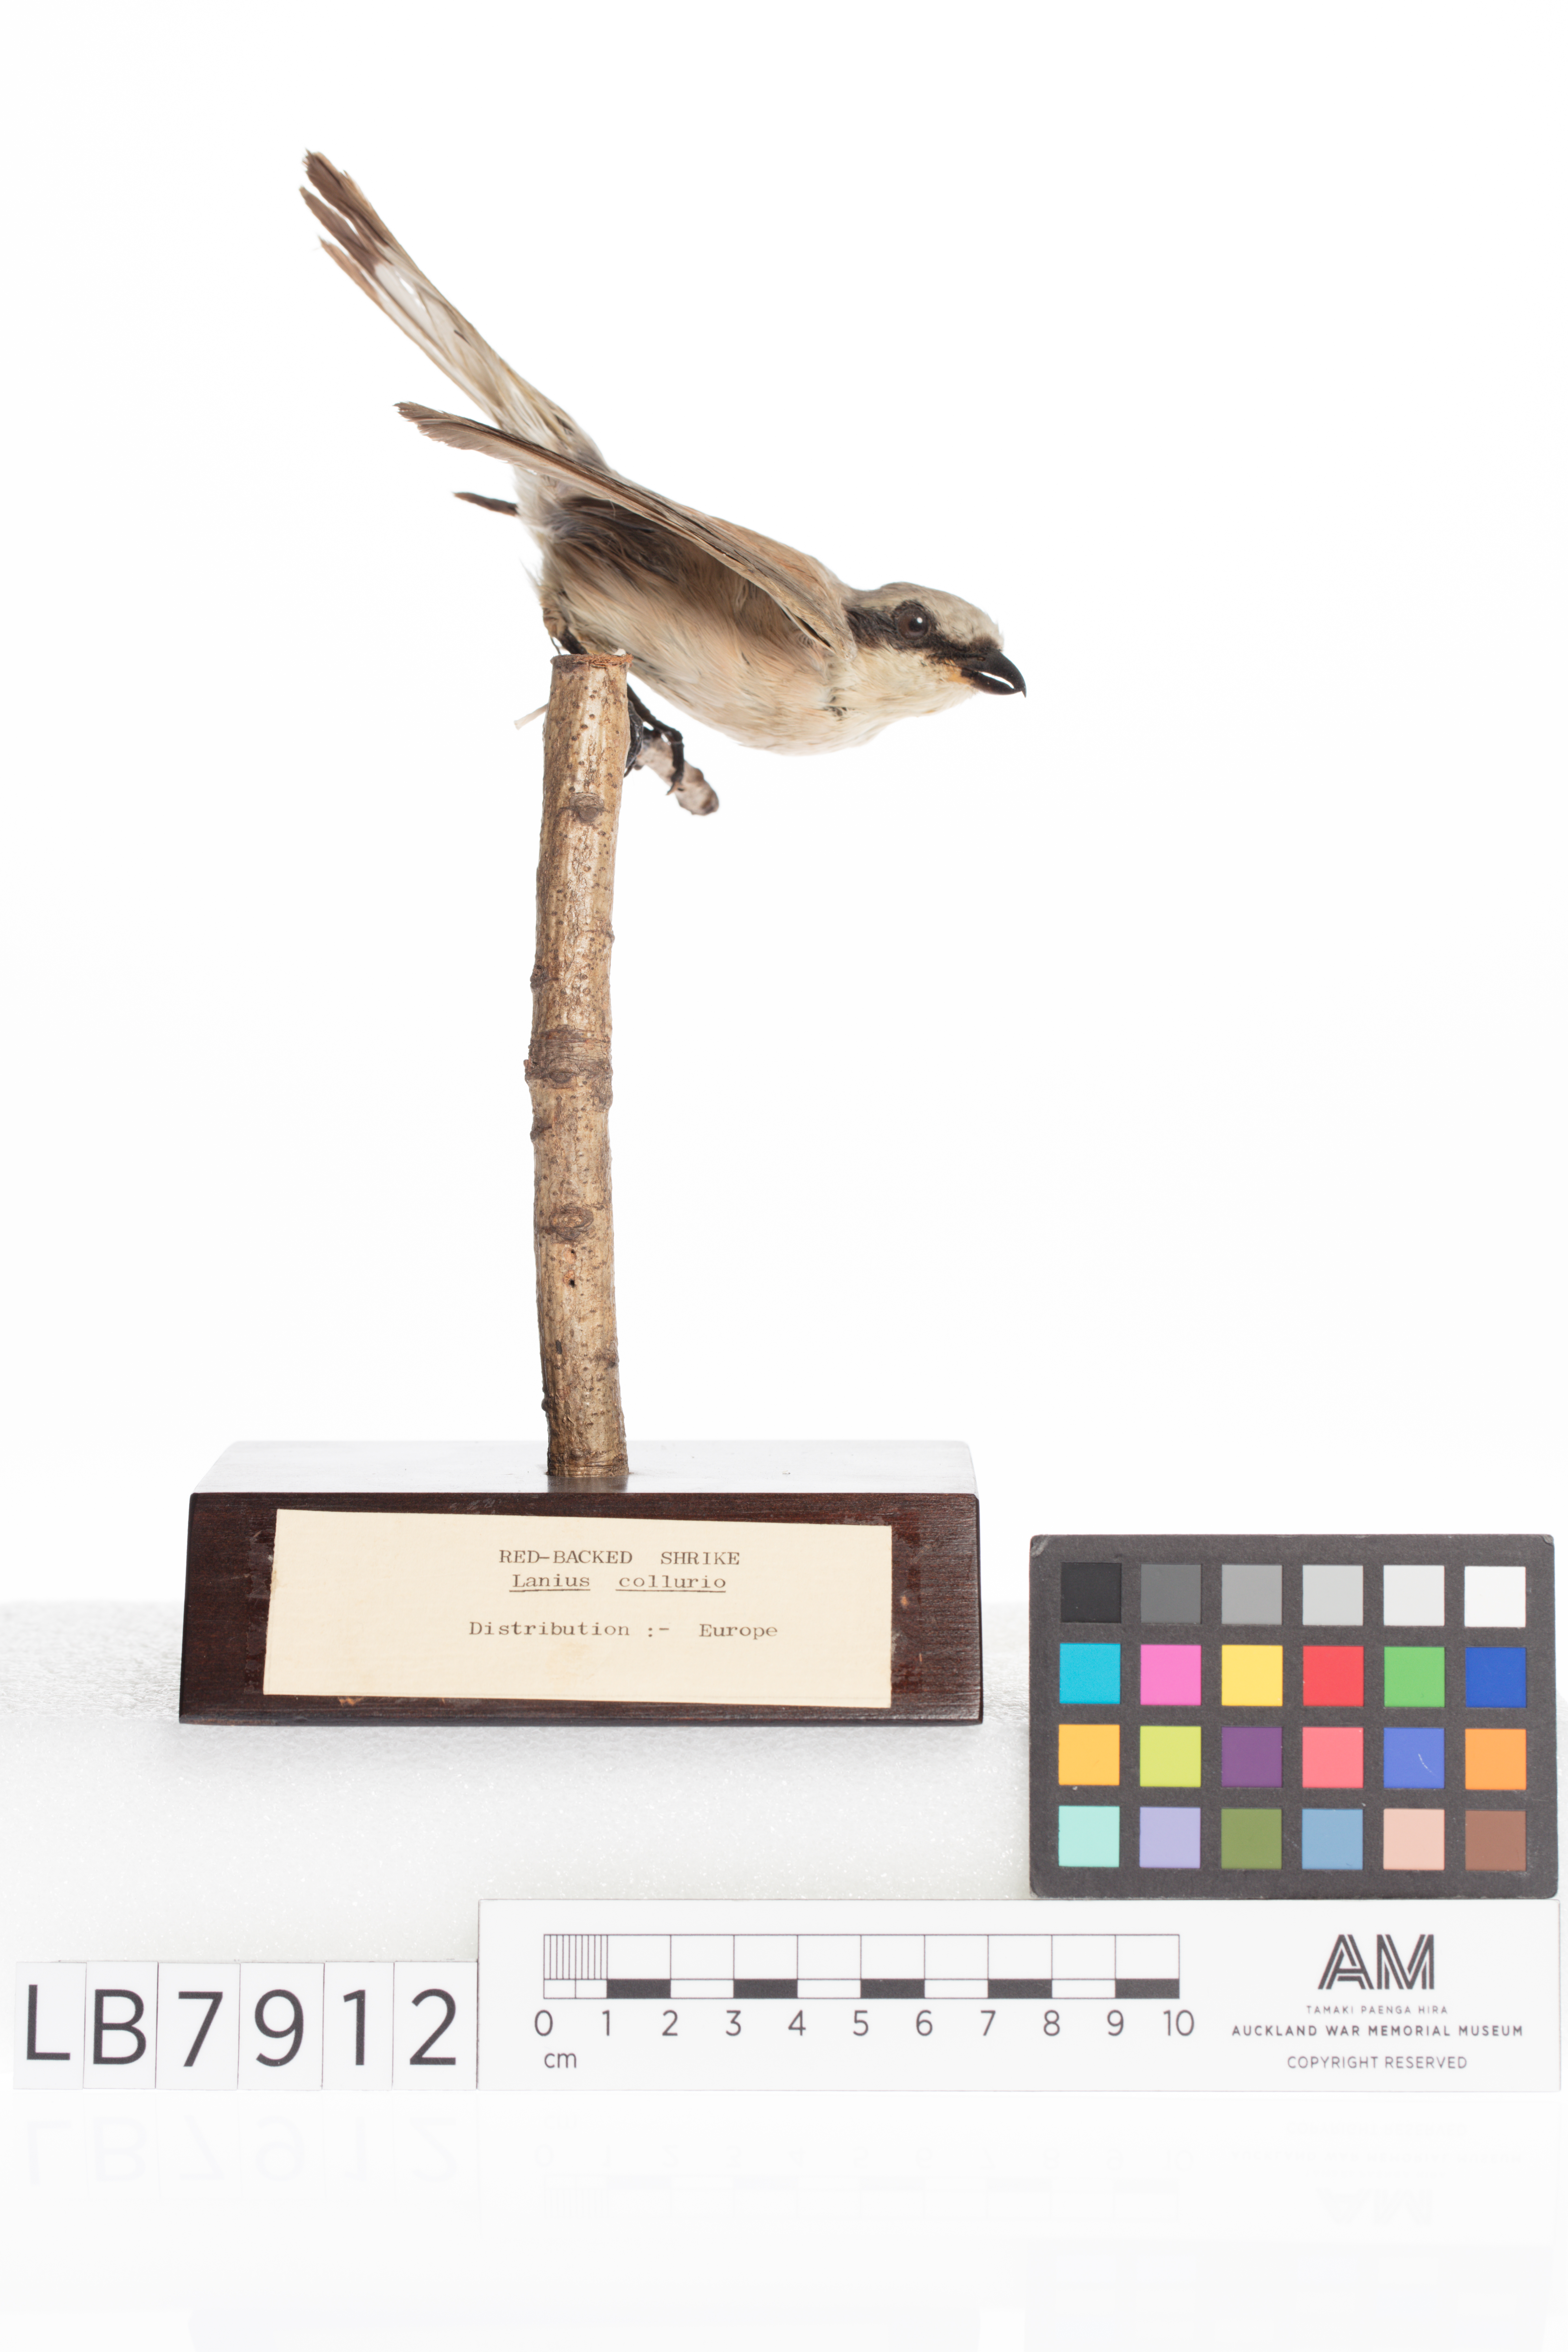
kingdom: Animalia
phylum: Chordata
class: Aves
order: Passeriformes
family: Laniidae
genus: Lanius
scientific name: Lanius collurio
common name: Red-backed shrike
